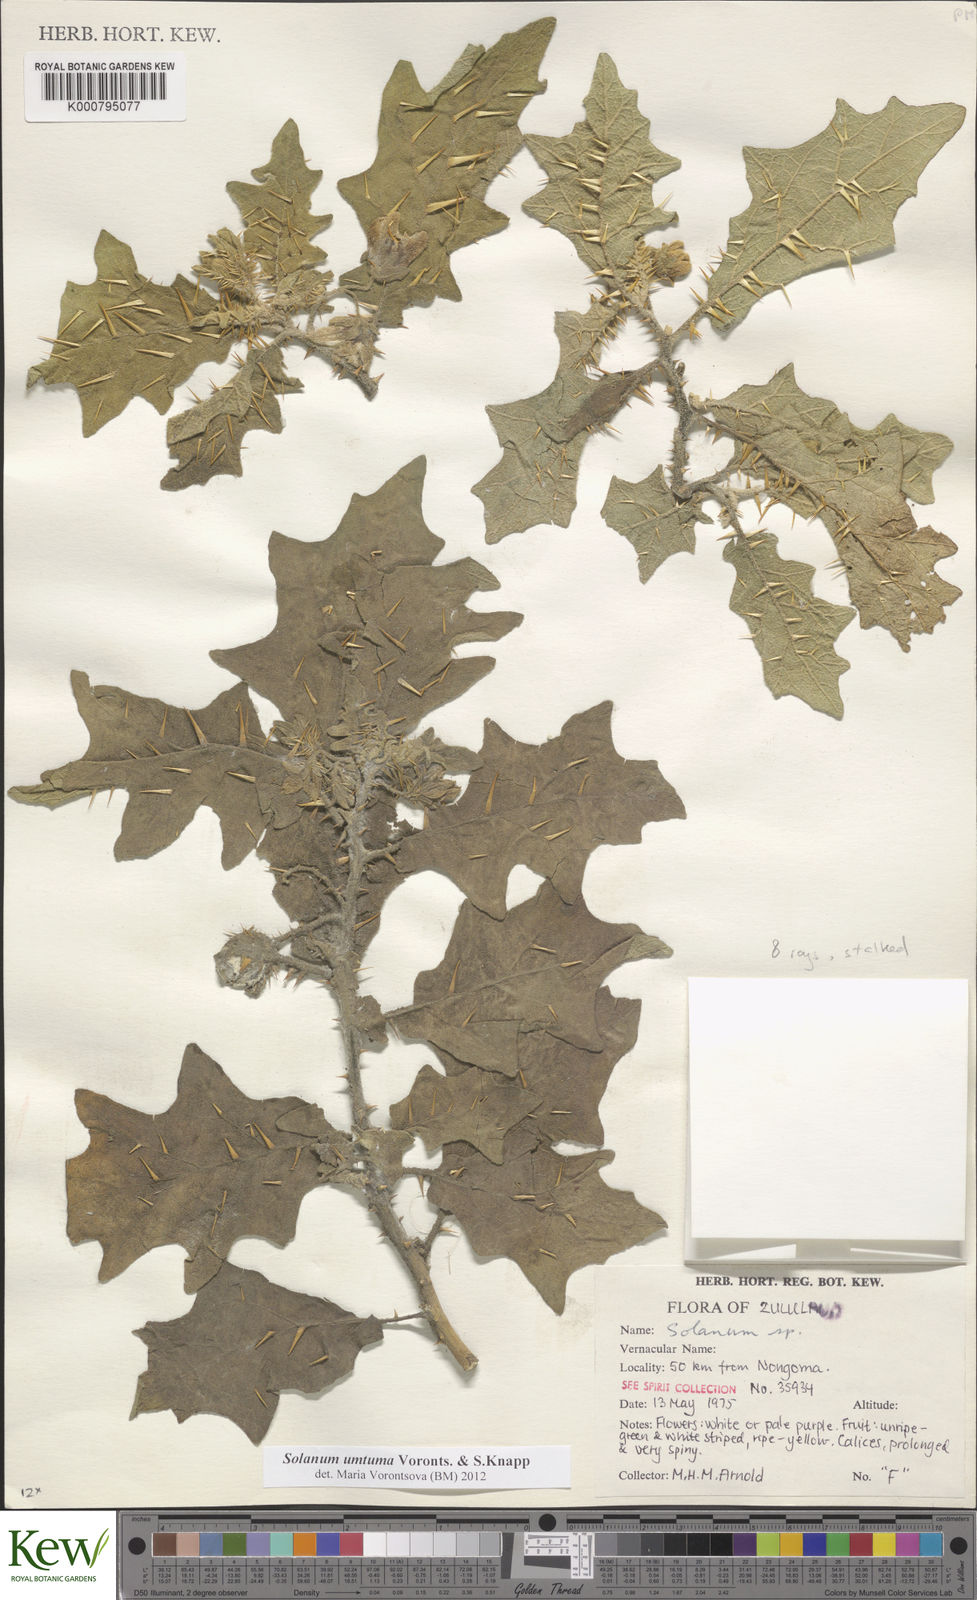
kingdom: Plantae
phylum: Tracheophyta
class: Magnoliopsida
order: Solanales
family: Solanaceae
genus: Solanum
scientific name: Solanum umtuma
